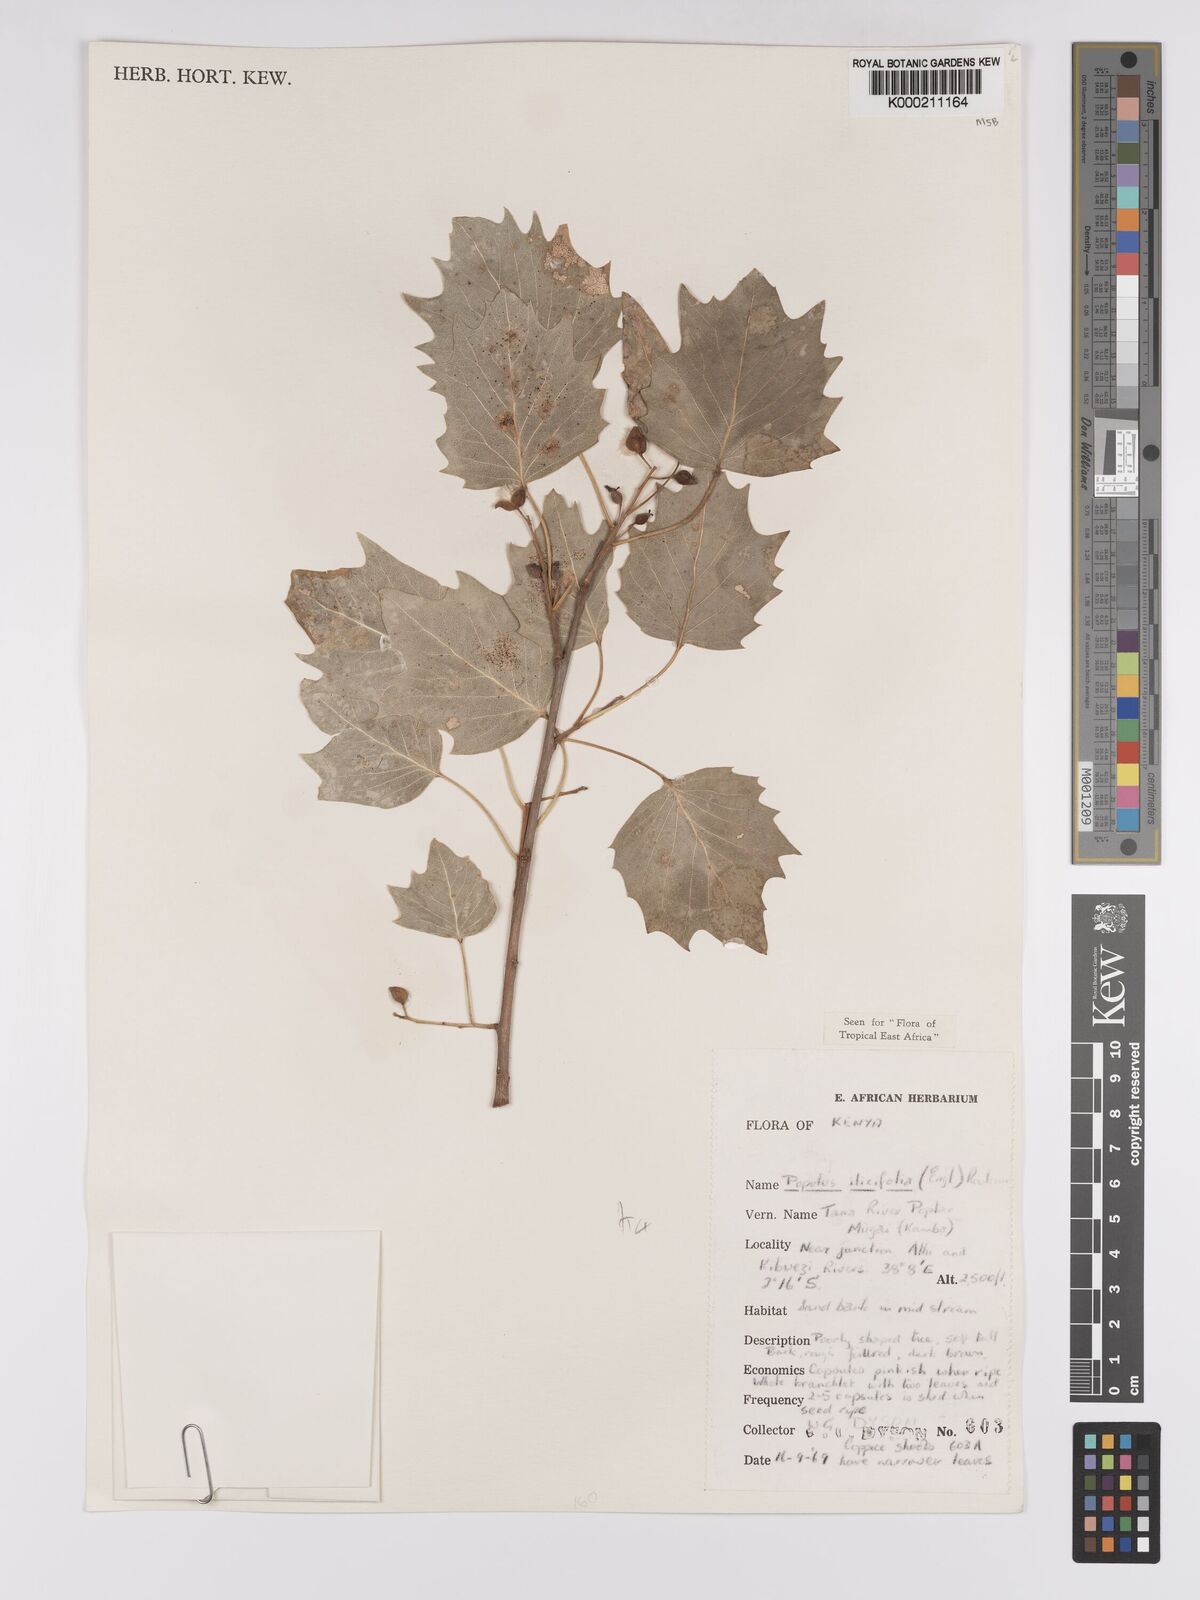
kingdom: Plantae
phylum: Tracheophyta
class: Magnoliopsida
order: Malpighiales
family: Salicaceae
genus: Populus
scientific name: Populus ilicifolia
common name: Tana river poplar
